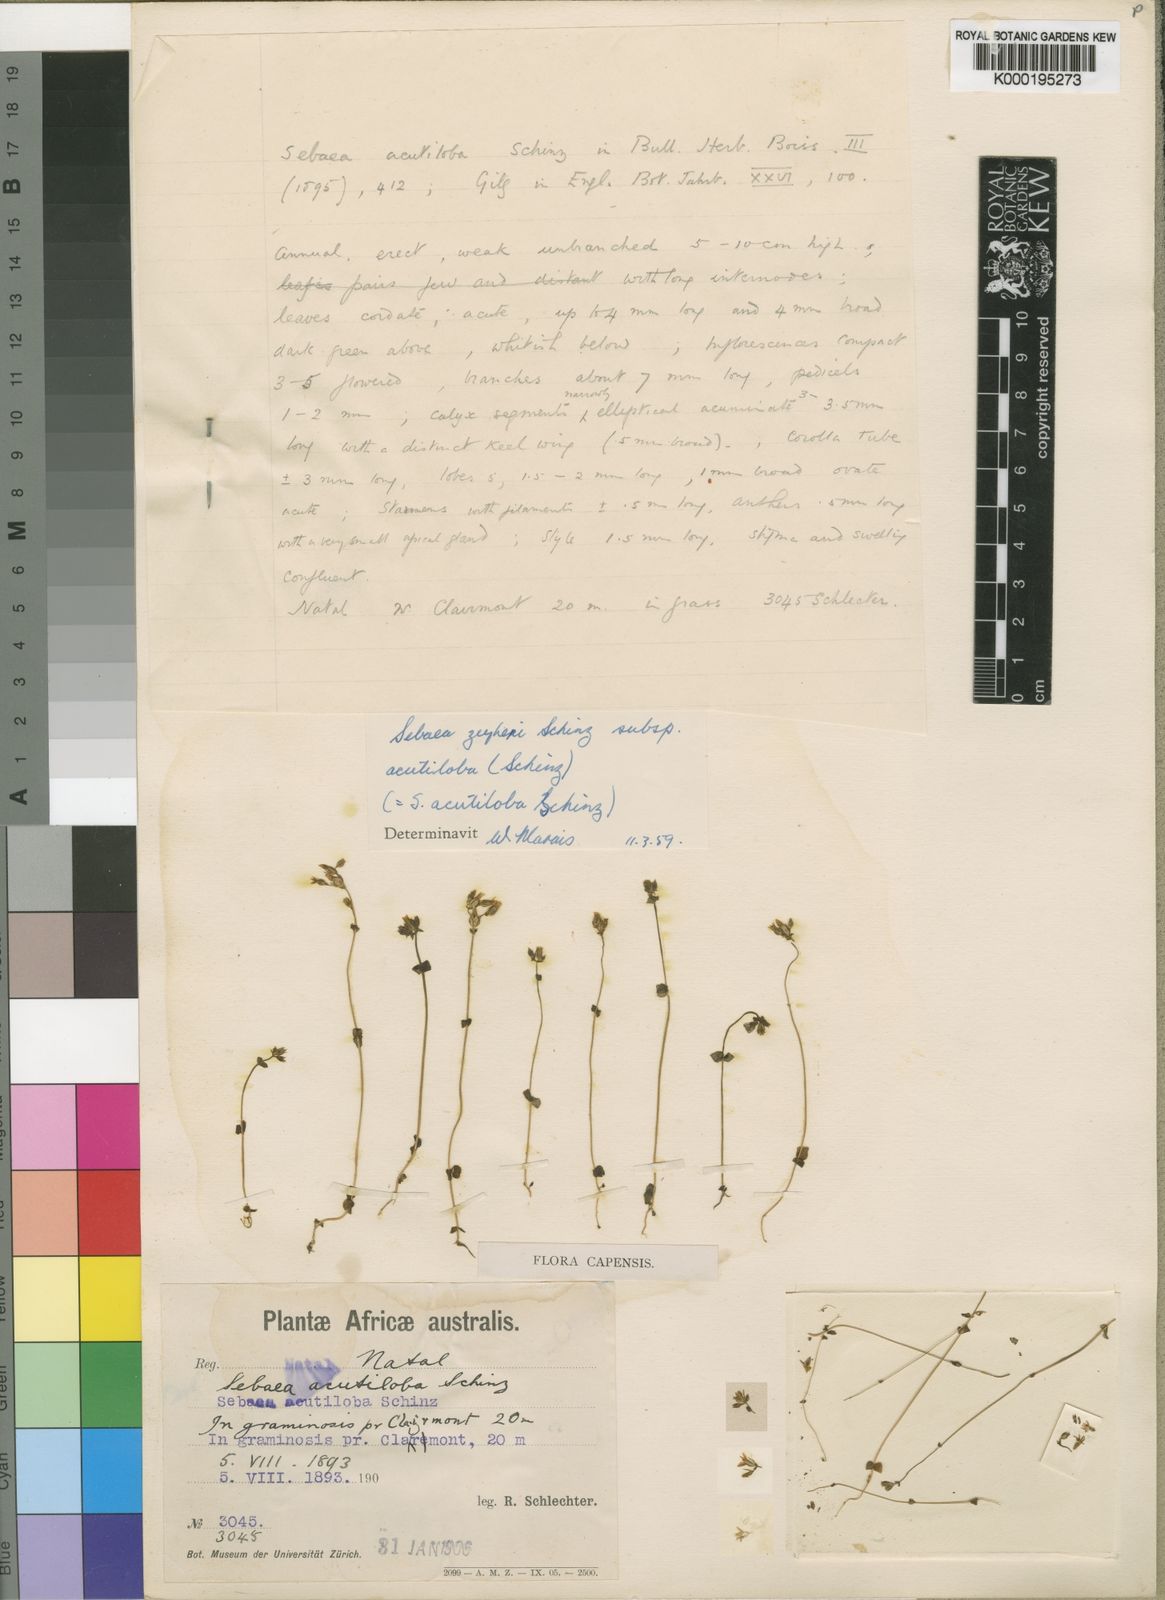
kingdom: Plantae
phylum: Tracheophyta
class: Magnoliopsida
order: Gentianales
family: Gentianaceae
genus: Sebaea
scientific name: Sebaea zeyheri
